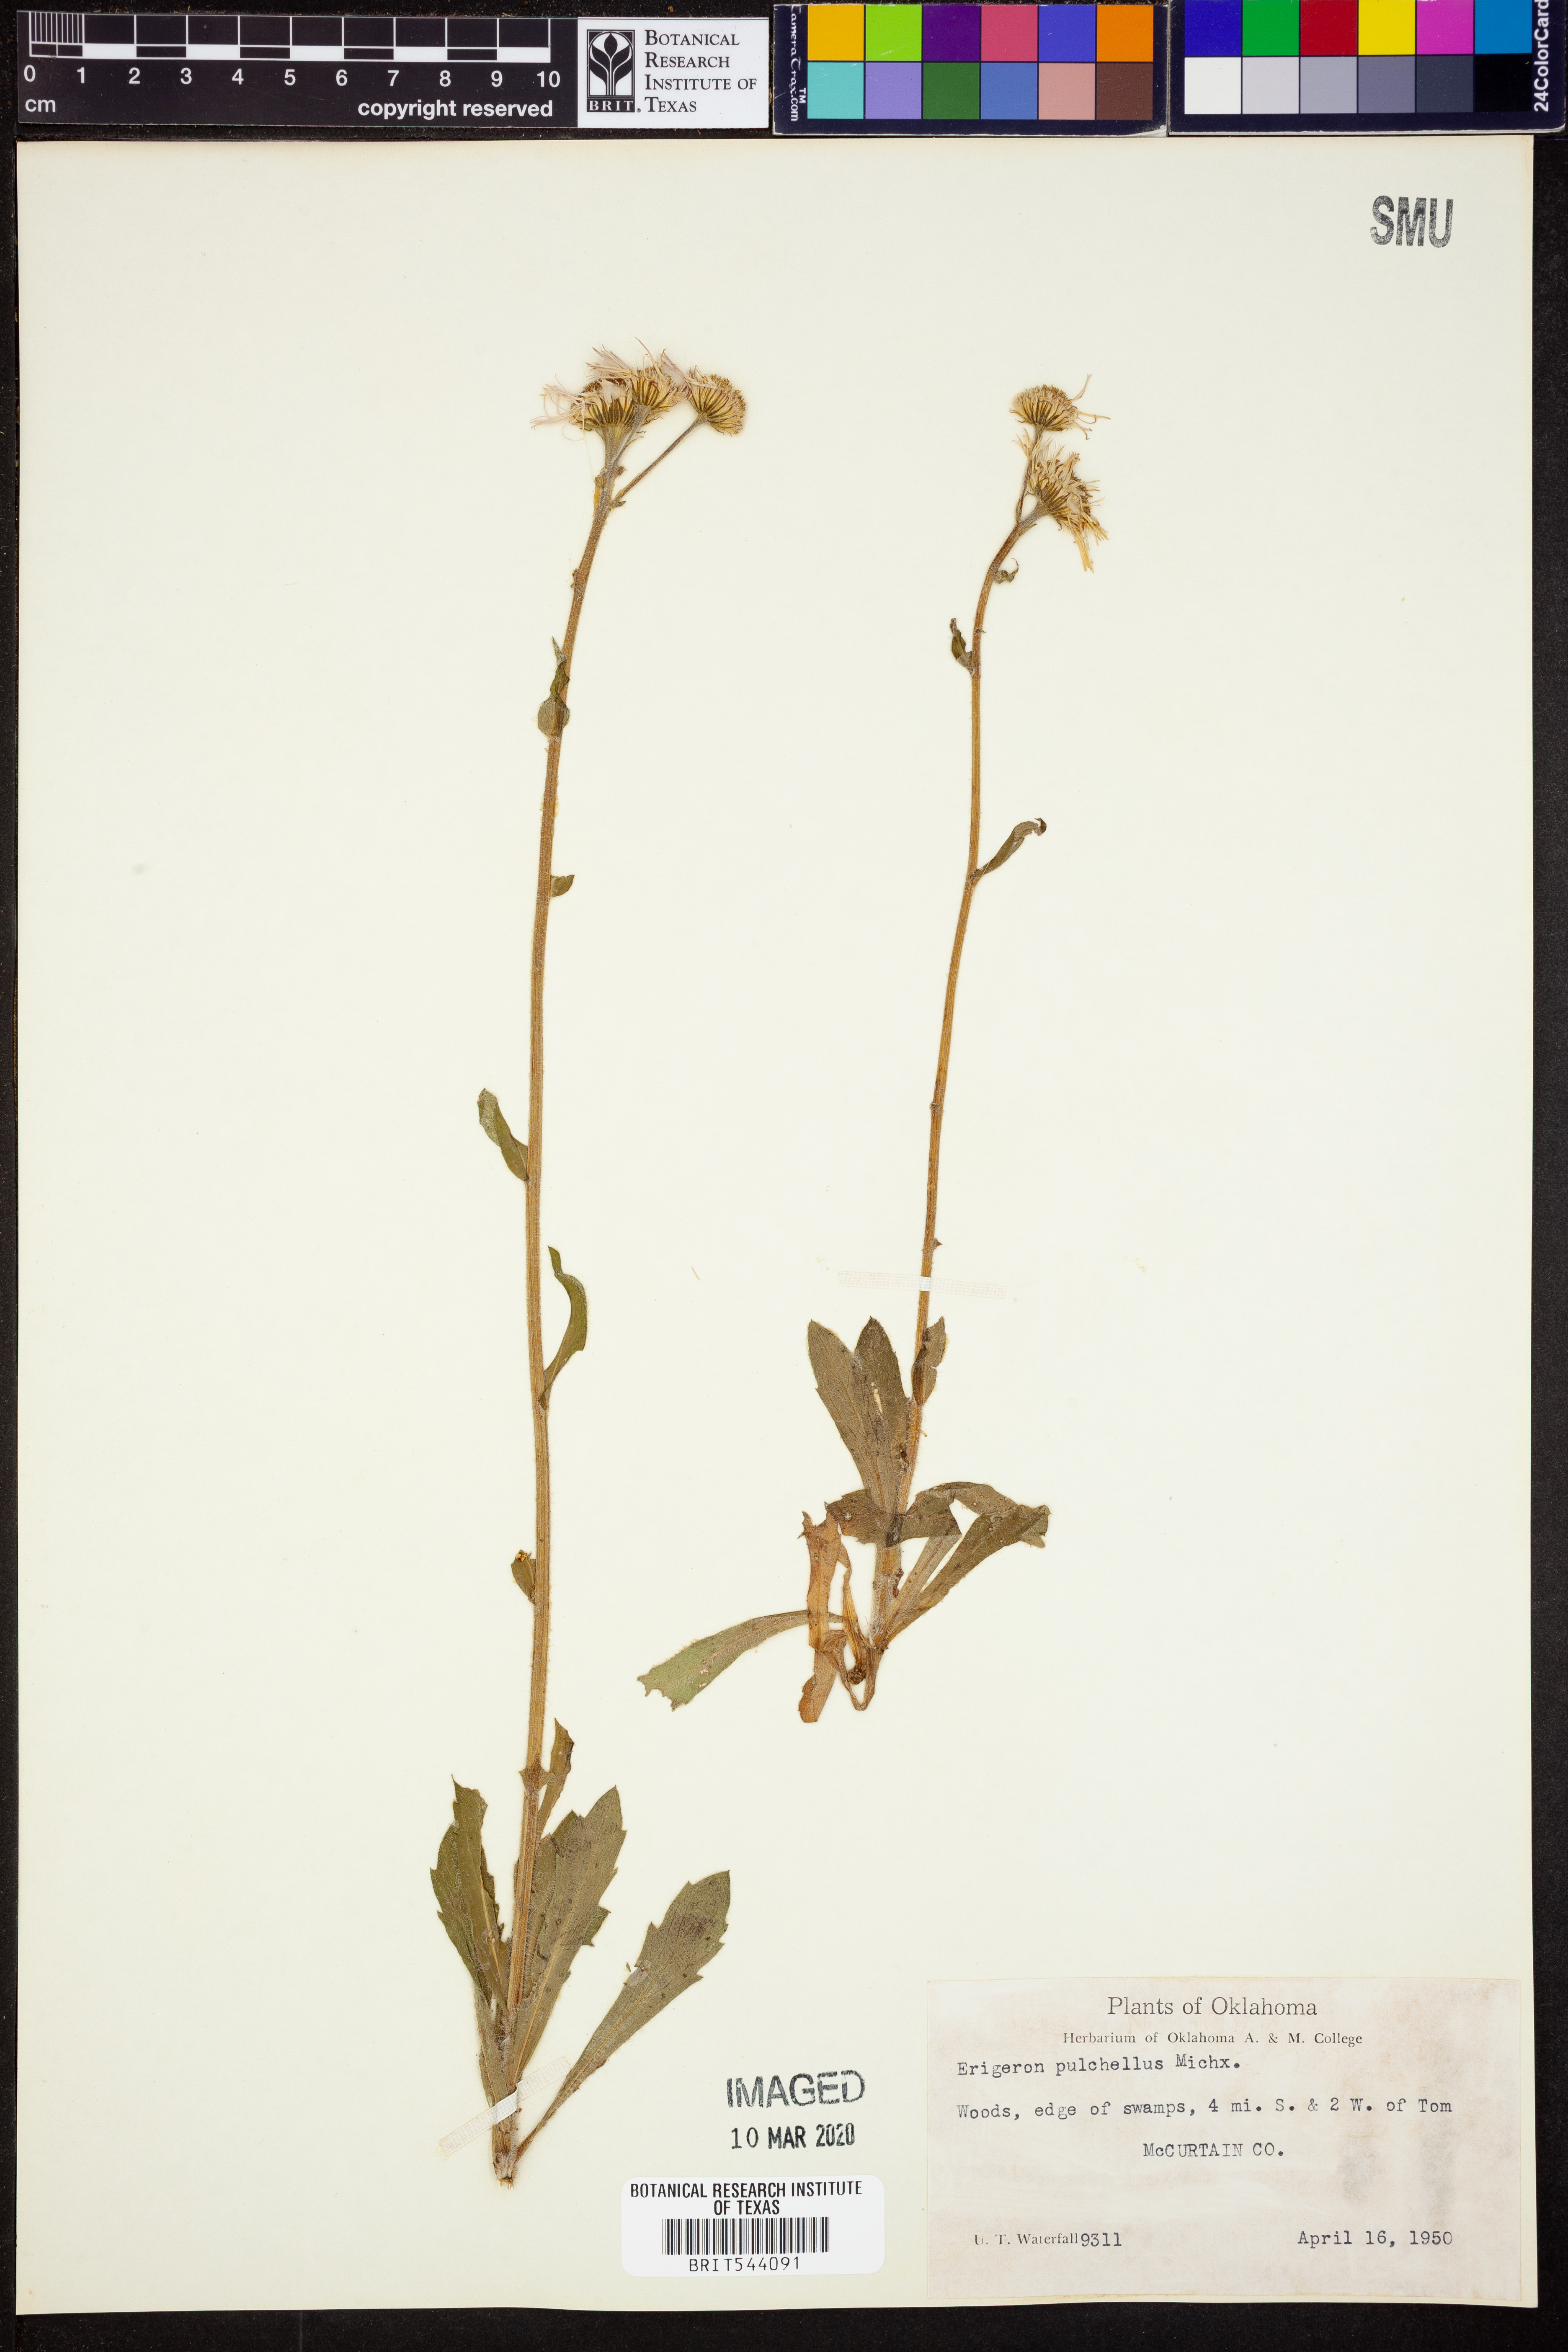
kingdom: Plantae
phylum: Tracheophyta
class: Magnoliopsida
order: Asterales
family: Asteraceae
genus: Erigeron
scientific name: Erigeron pulchellus
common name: Hairy fleabane
